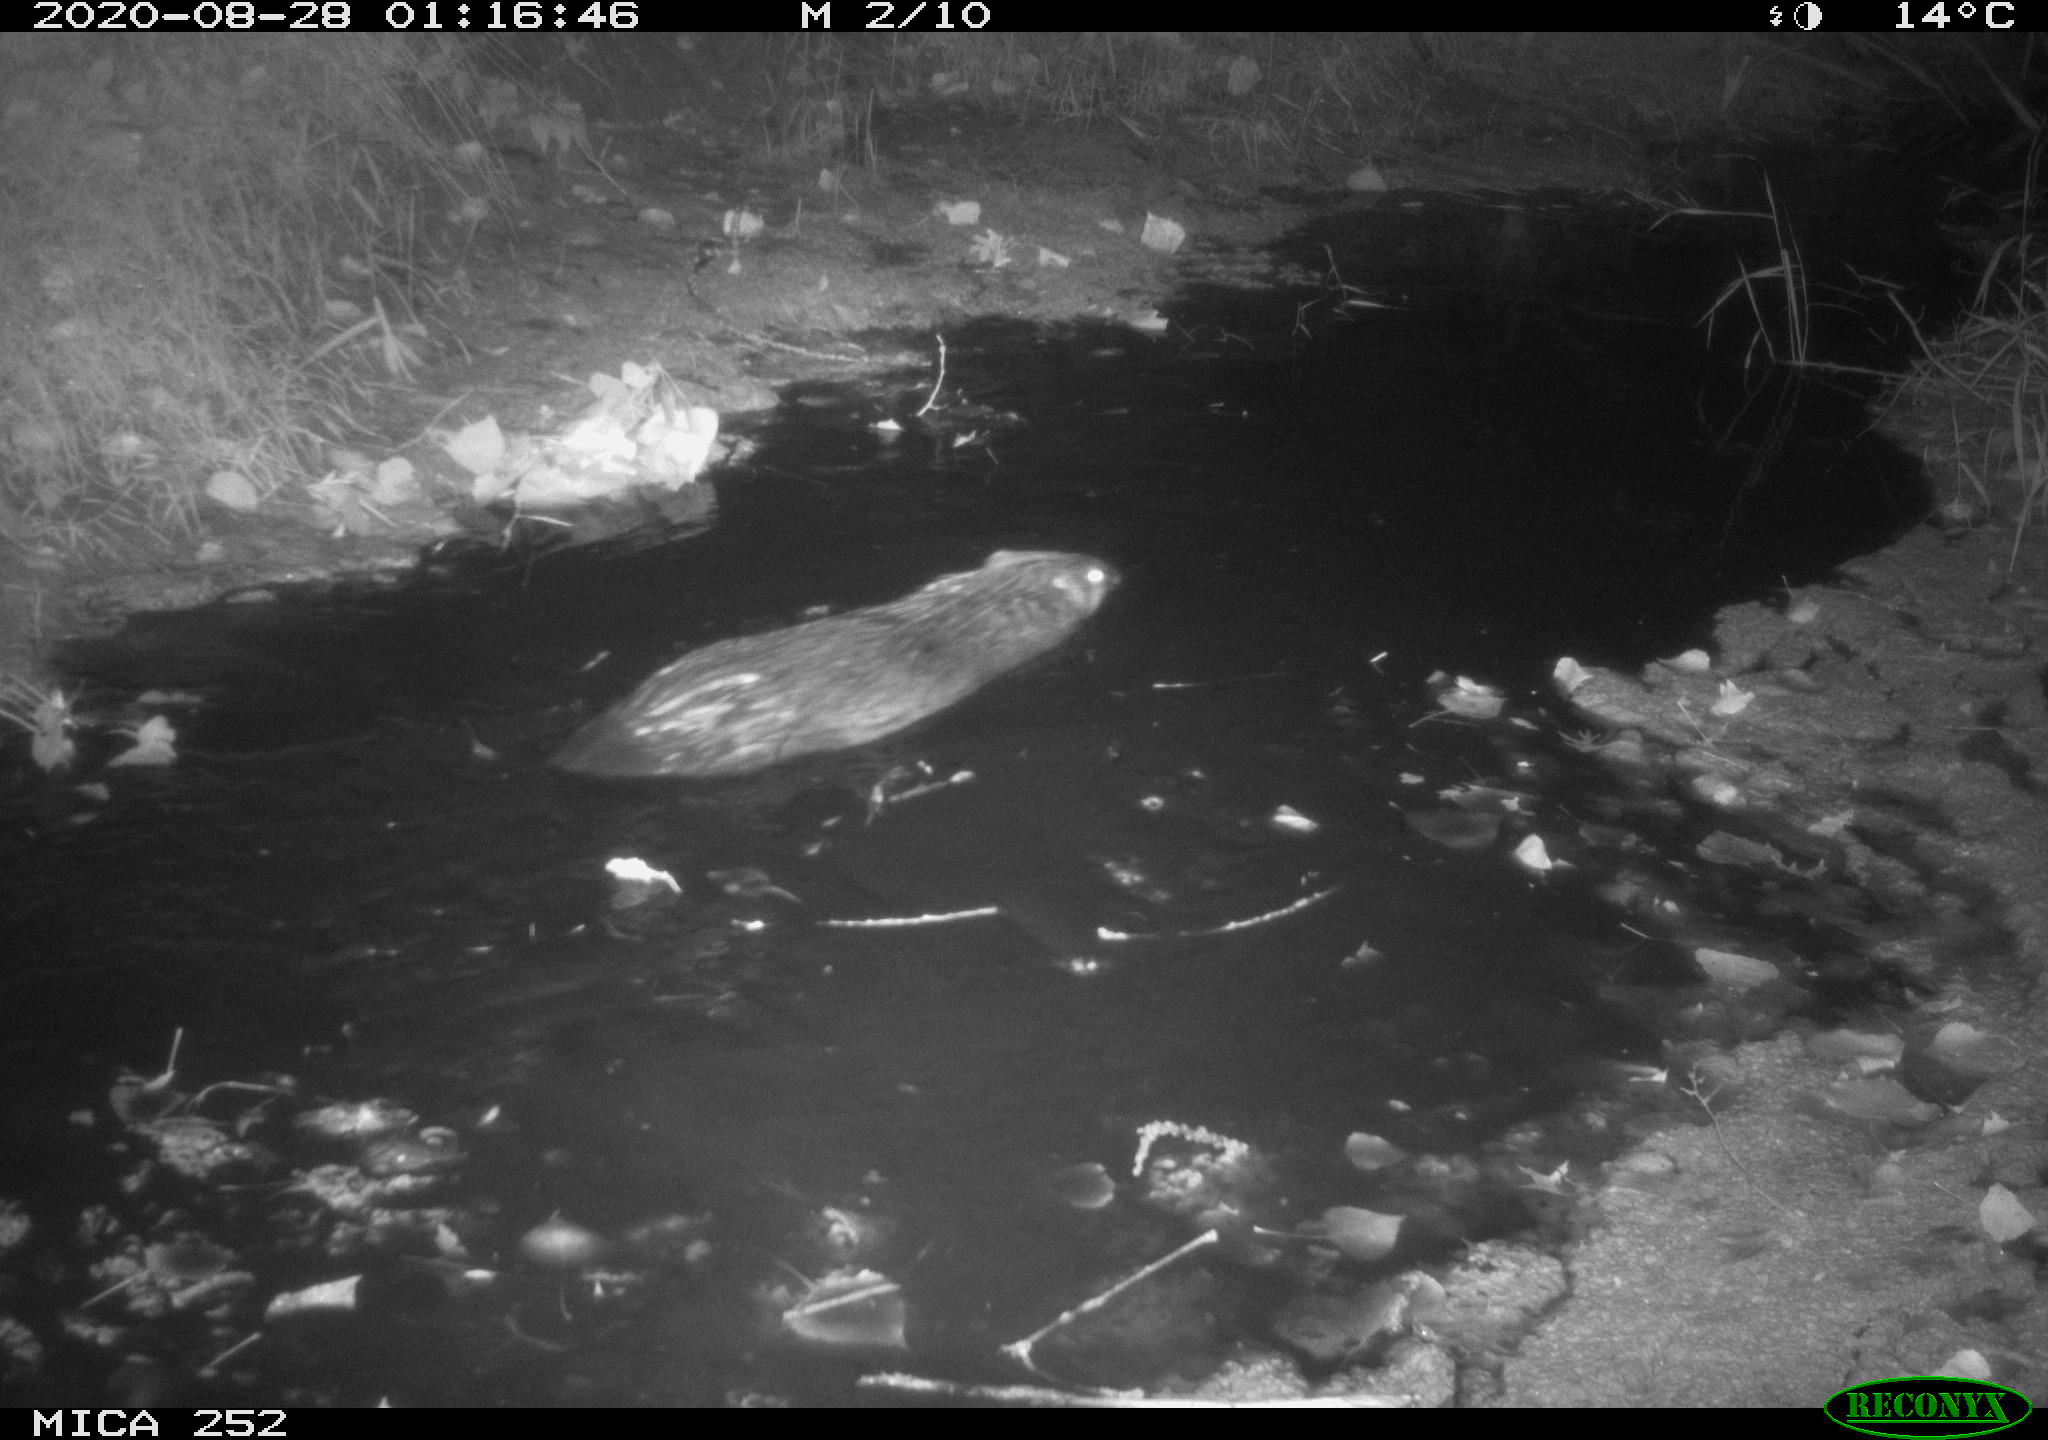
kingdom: Animalia
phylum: Chordata
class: Mammalia
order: Rodentia
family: Castoridae
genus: Castor
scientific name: Castor fiber
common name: Eurasian beaver
